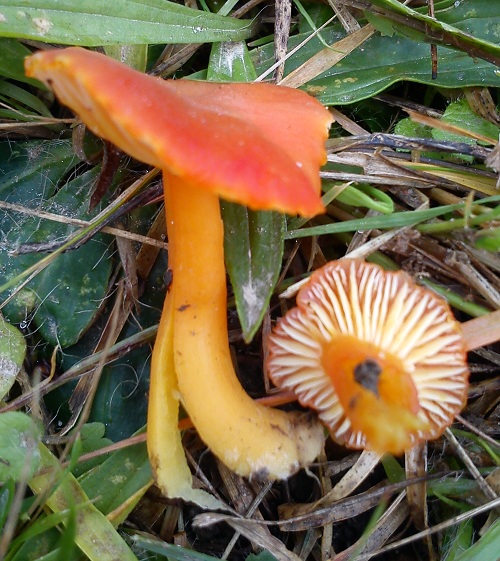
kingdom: Fungi
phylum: Basidiomycota
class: Agaricomycetes
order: Agaricales
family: Hygrophoraceae
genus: Hygrocybe
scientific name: Hygrocybe reidii
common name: honning-vokshat
